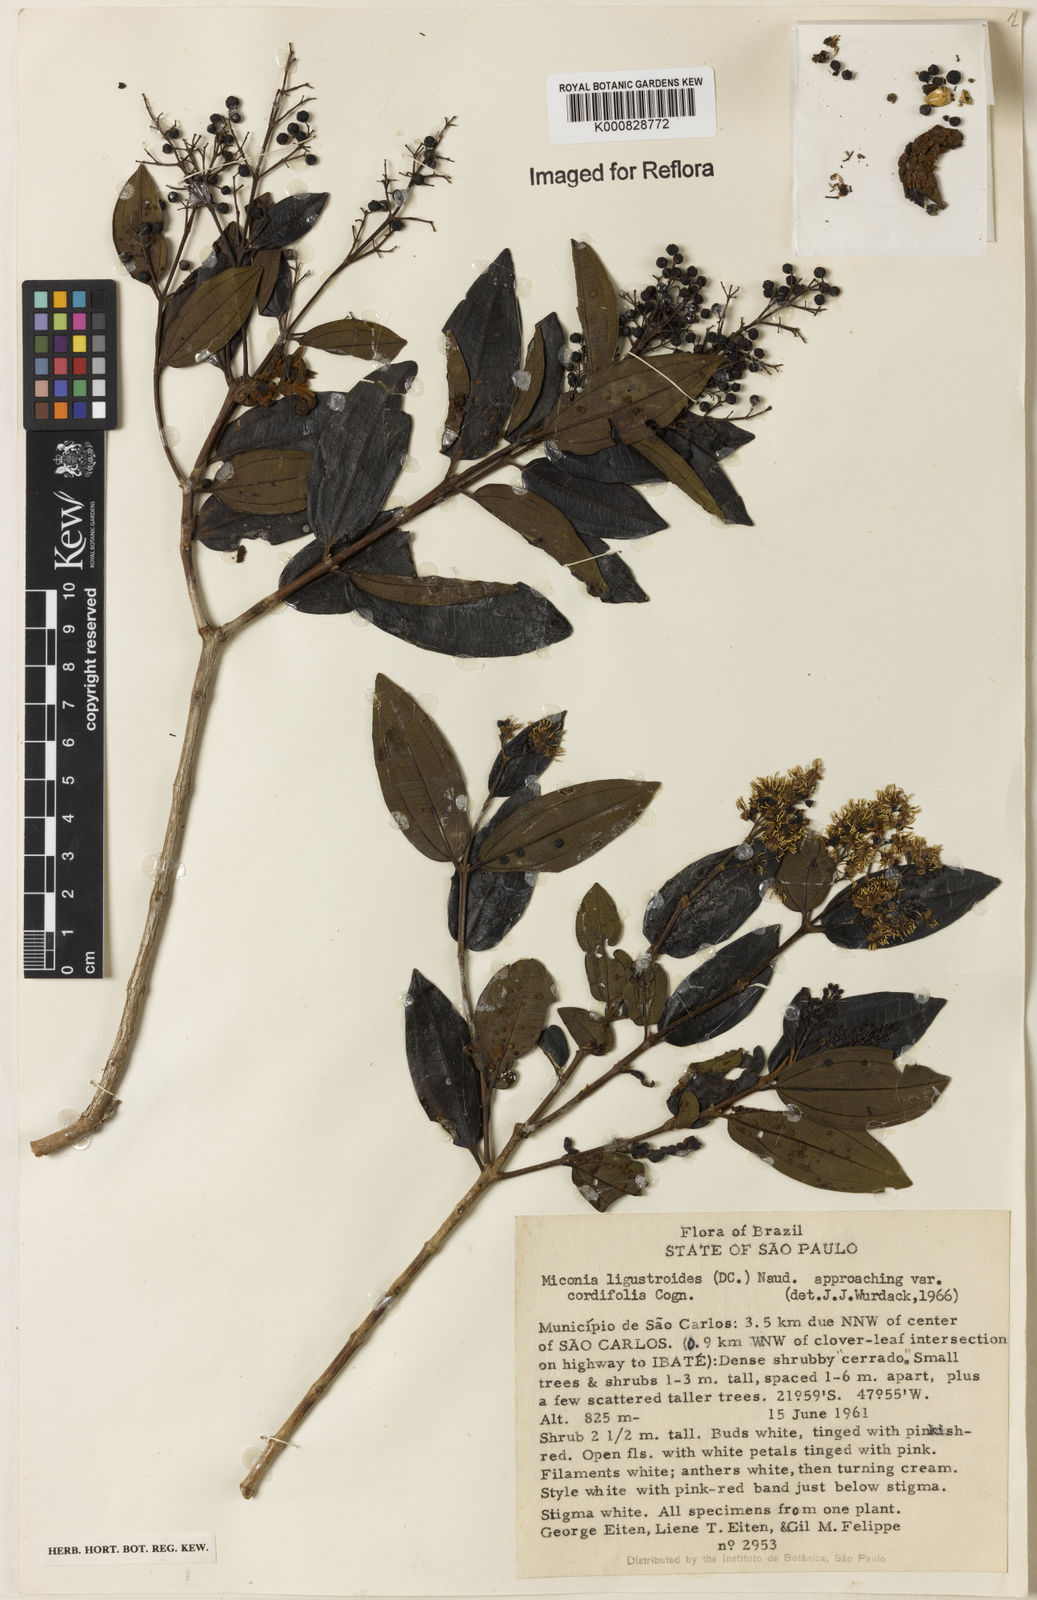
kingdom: Plantae
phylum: Tracheophyta
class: Magnoliopsida
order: Myrtales
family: Melastomataceae
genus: Miconia
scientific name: Miconia ligustroides
